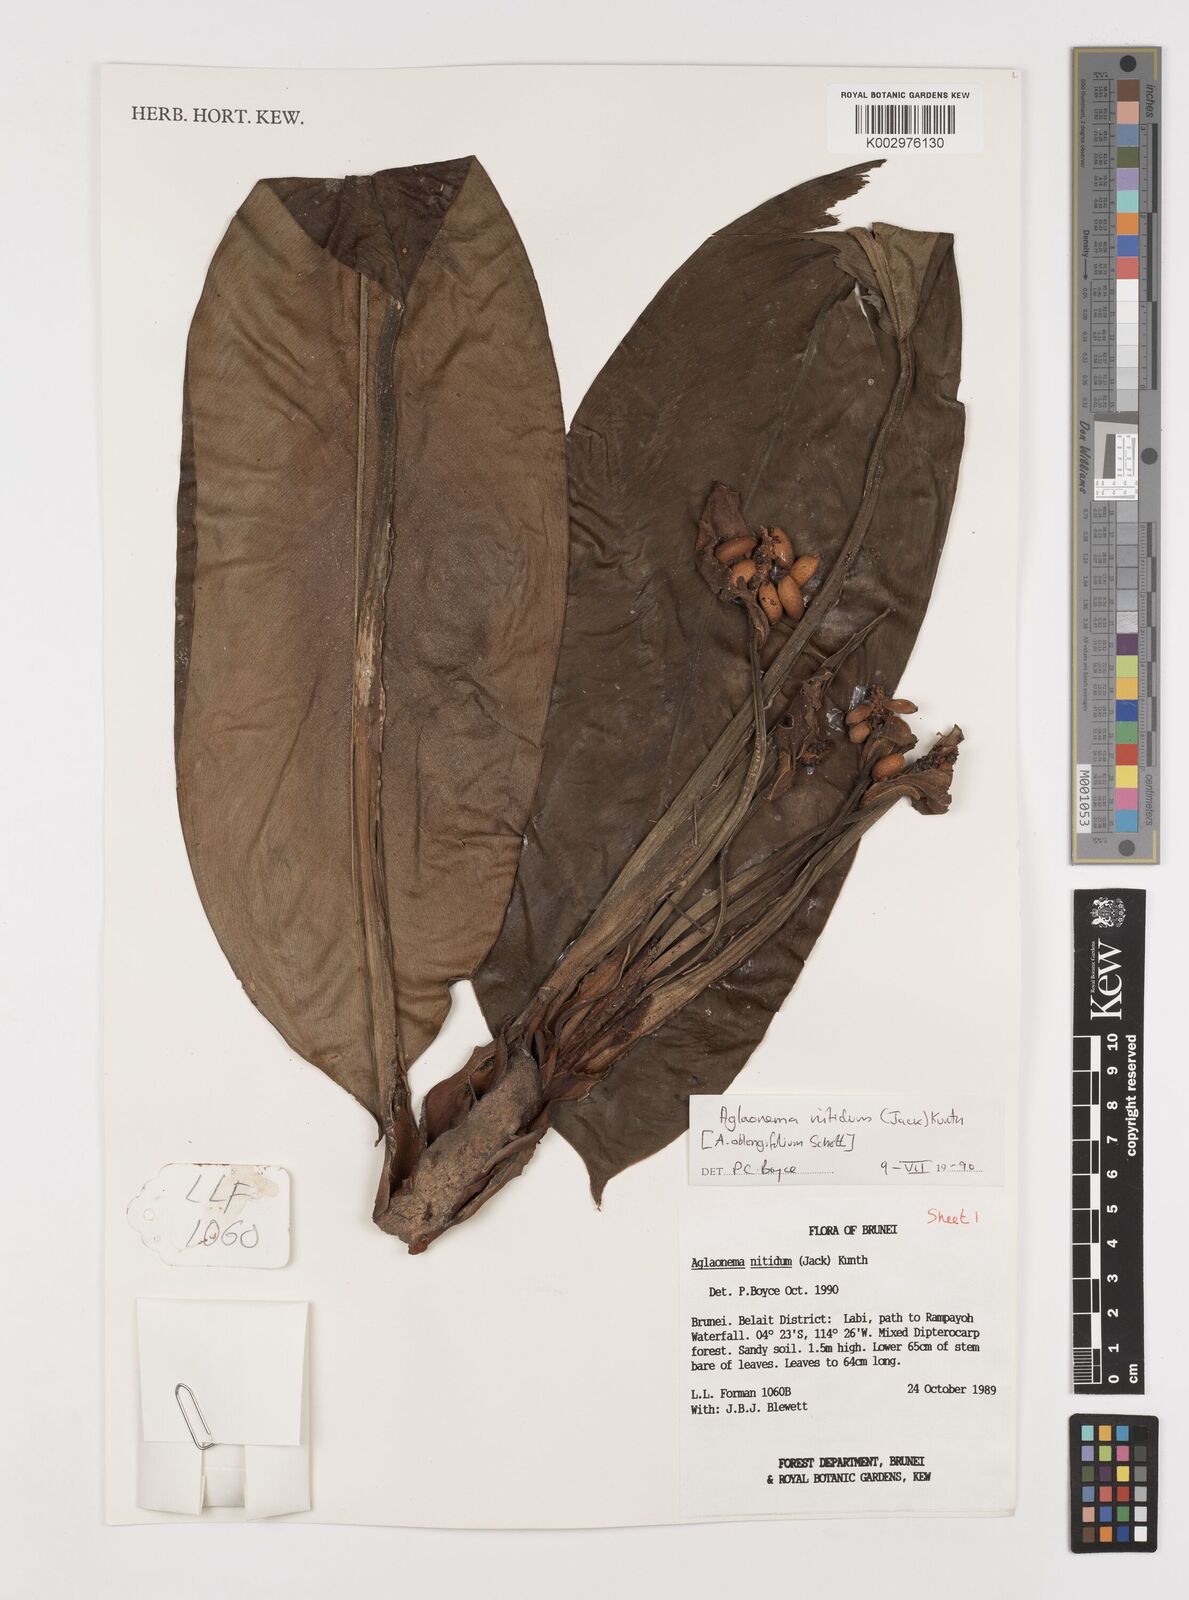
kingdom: Plantae
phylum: Tracheophyta
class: Liliopsida
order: Alismatales
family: Araceae
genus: Aglaonema
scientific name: Aglaonema nitidum
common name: Aglaonema aroid
